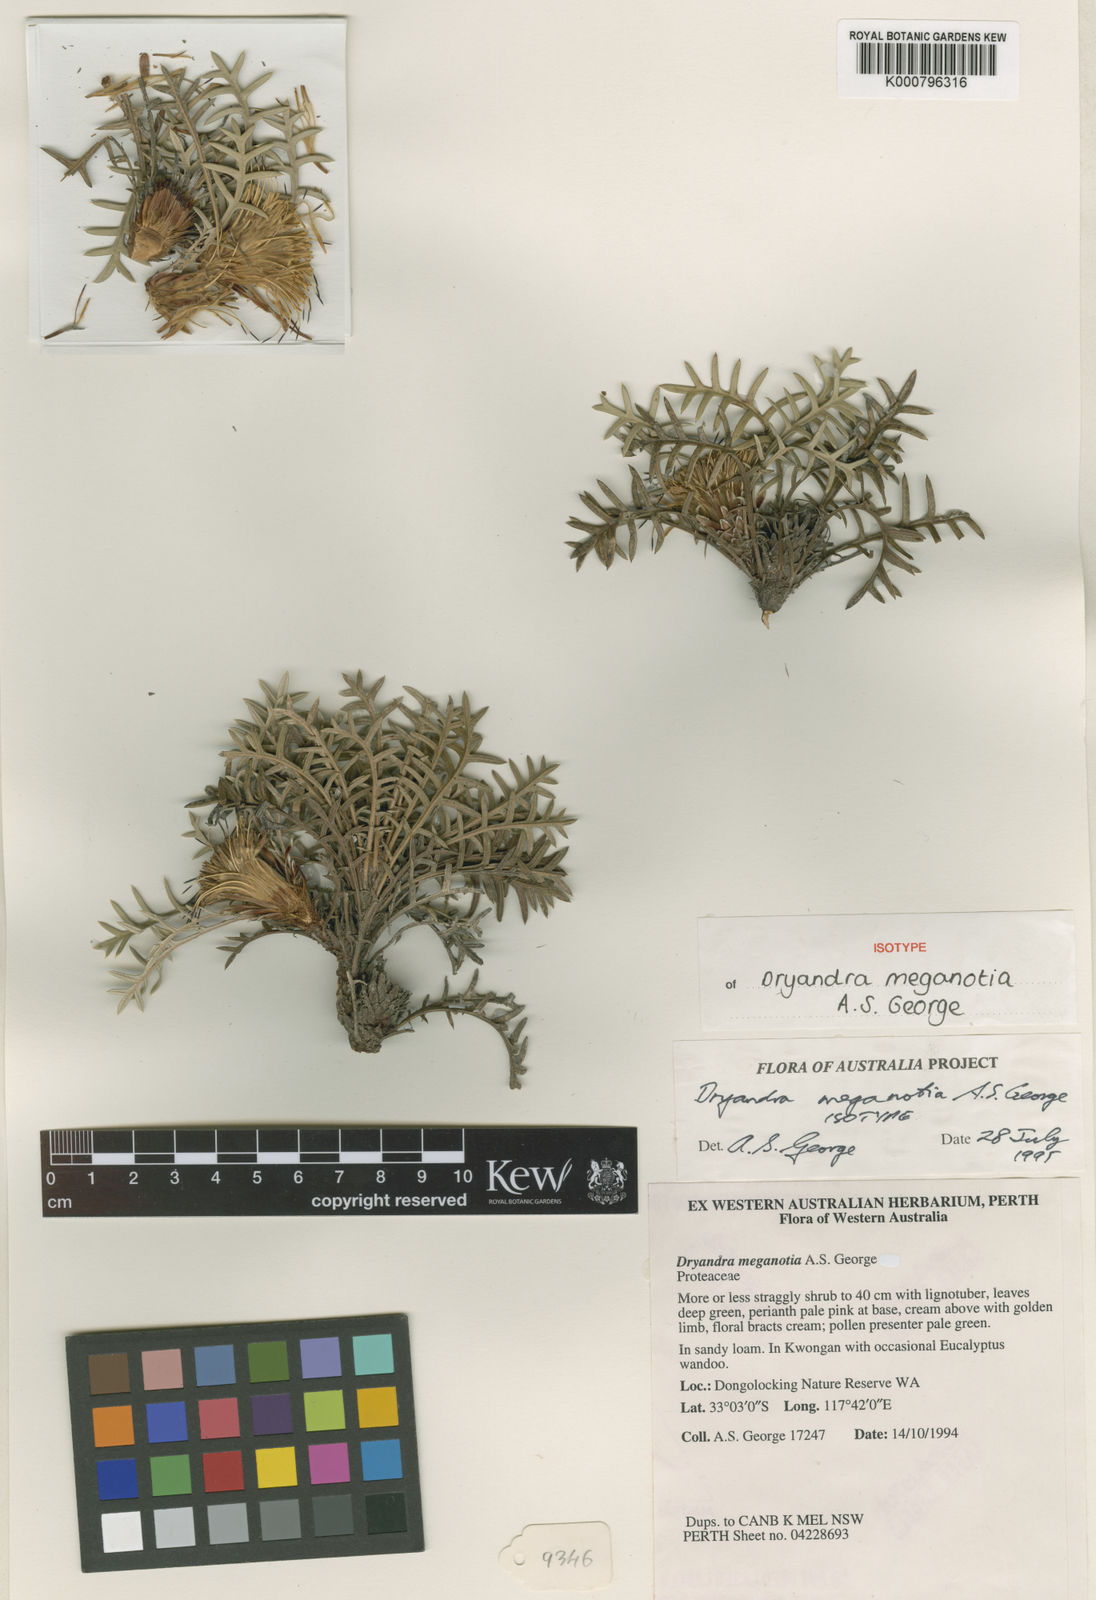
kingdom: Plantae
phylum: Tracheophyta
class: Magnoliopsida
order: Proteales
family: Proteaceae
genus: Banksia
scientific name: Banksia meganotia
